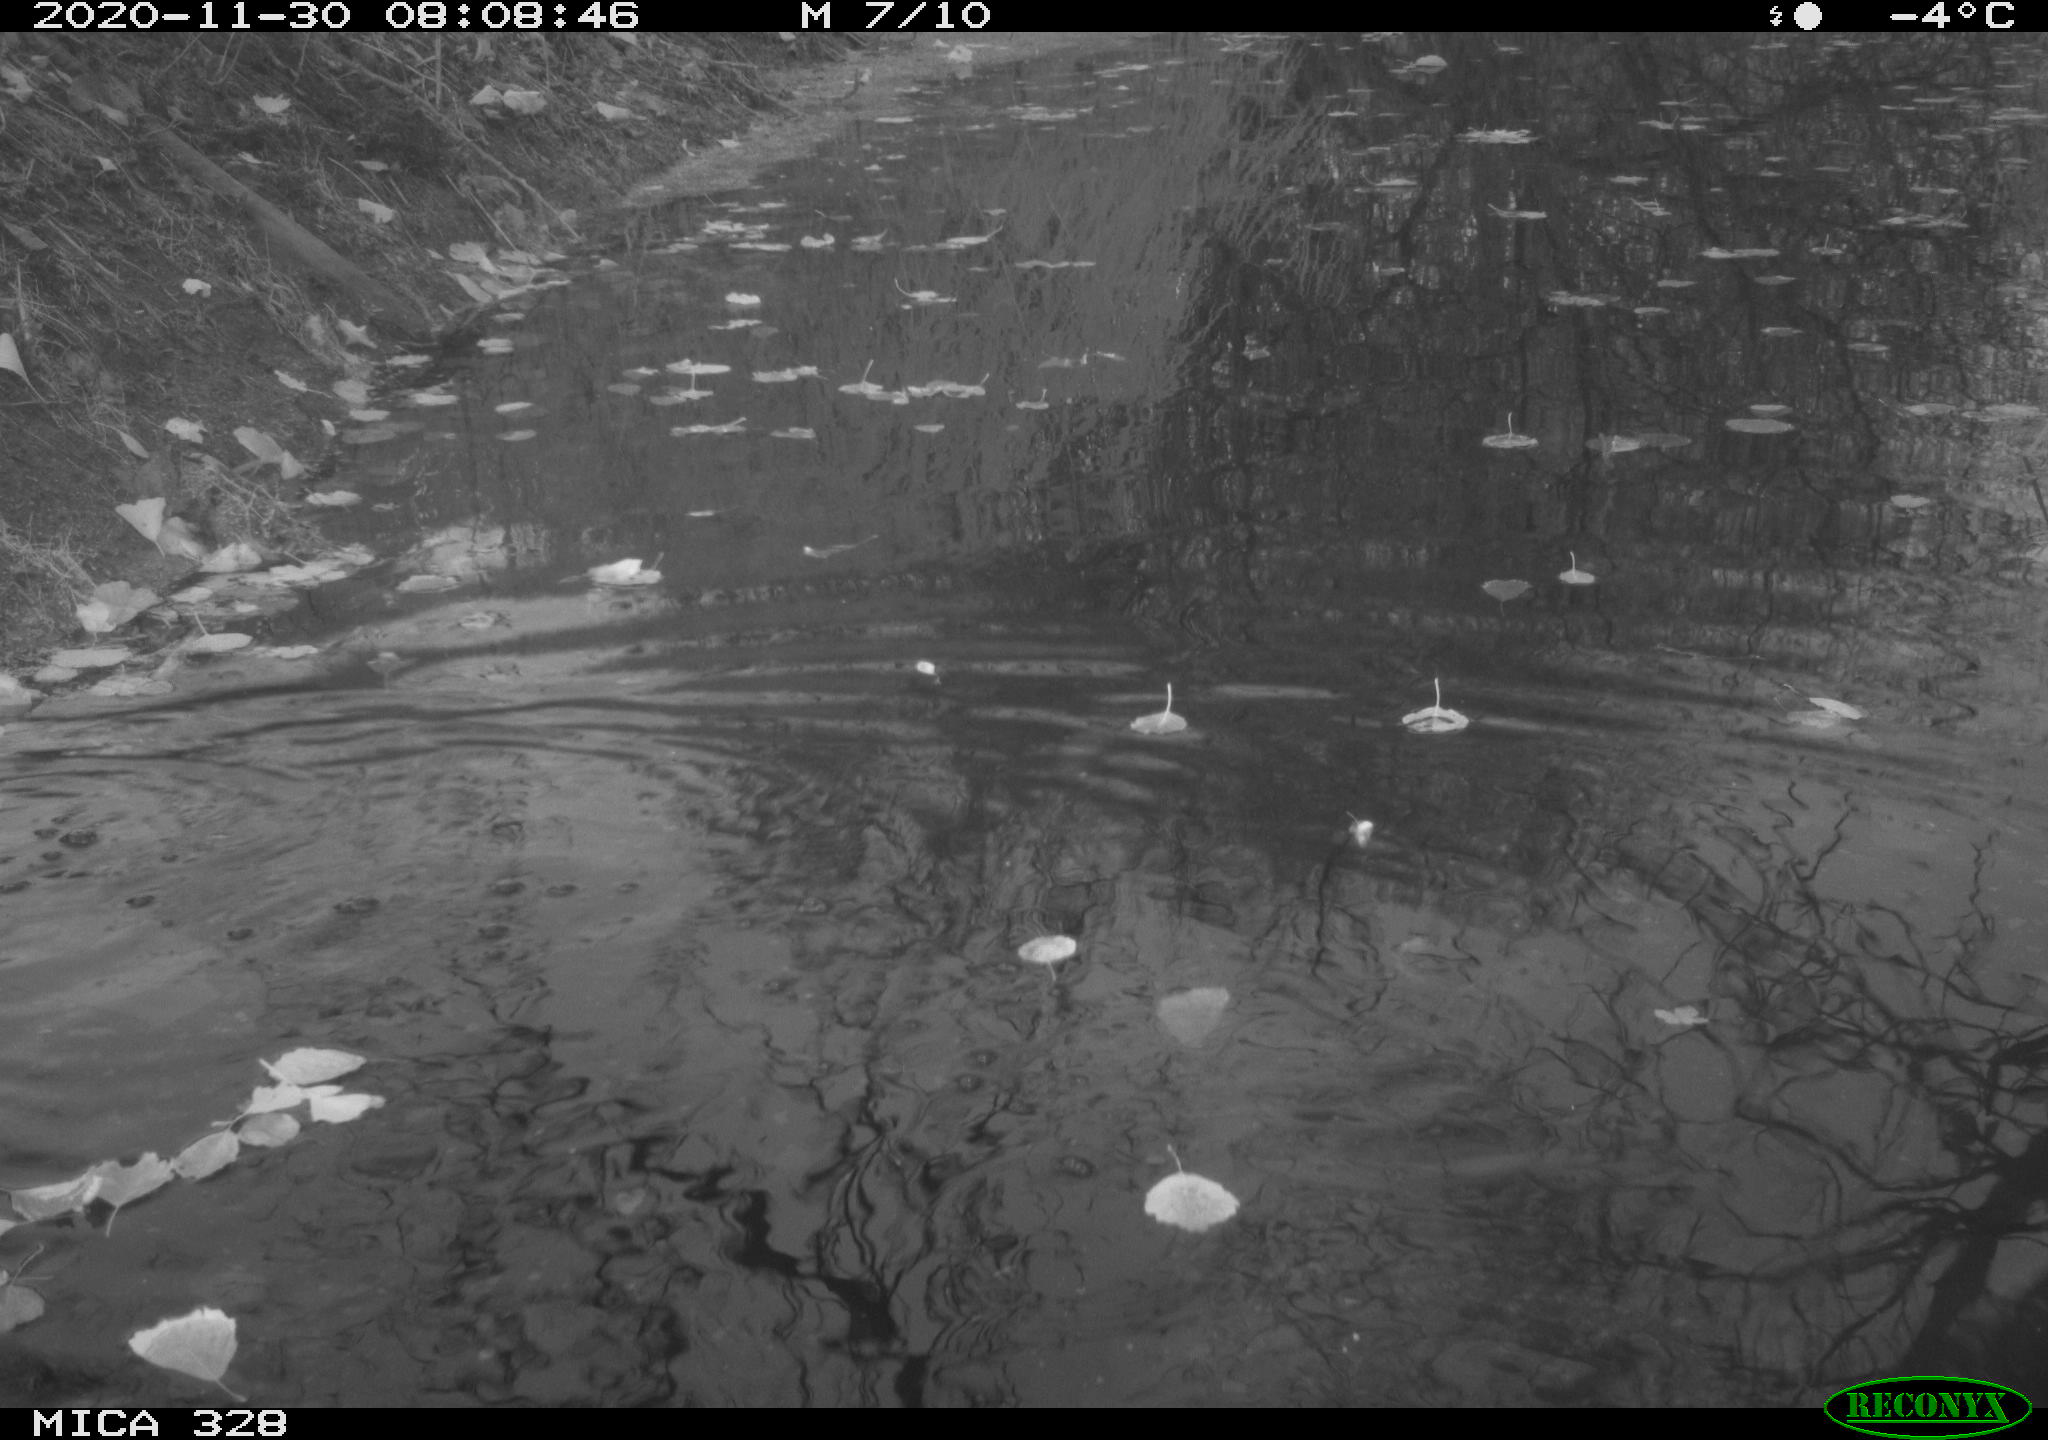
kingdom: Animalia
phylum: Chordata
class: Aves
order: Pelecaniformes
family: Ardeidae
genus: Ardea
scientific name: Ardea alba
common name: Great egret
